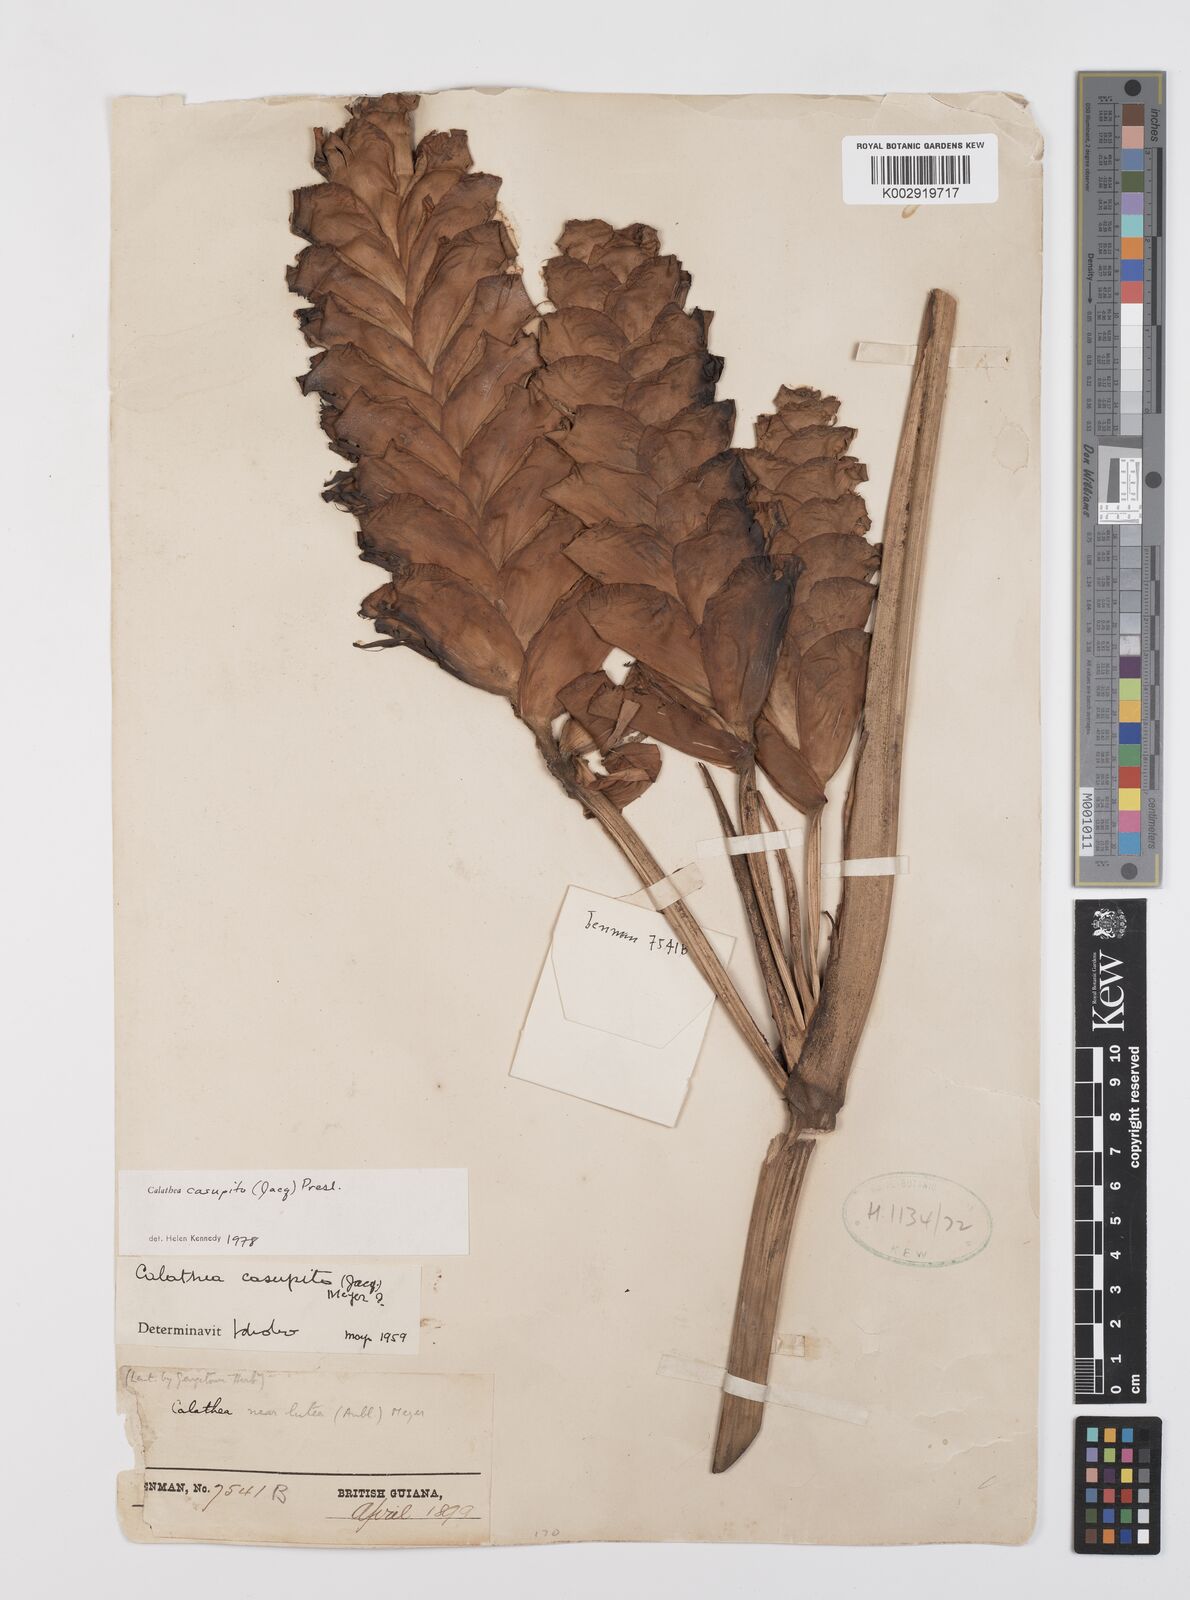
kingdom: Plantae
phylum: Tracheophyta
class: Liliopsida
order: Zingiberales
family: Marantaceae
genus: Calathea
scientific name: Calathea casupito
